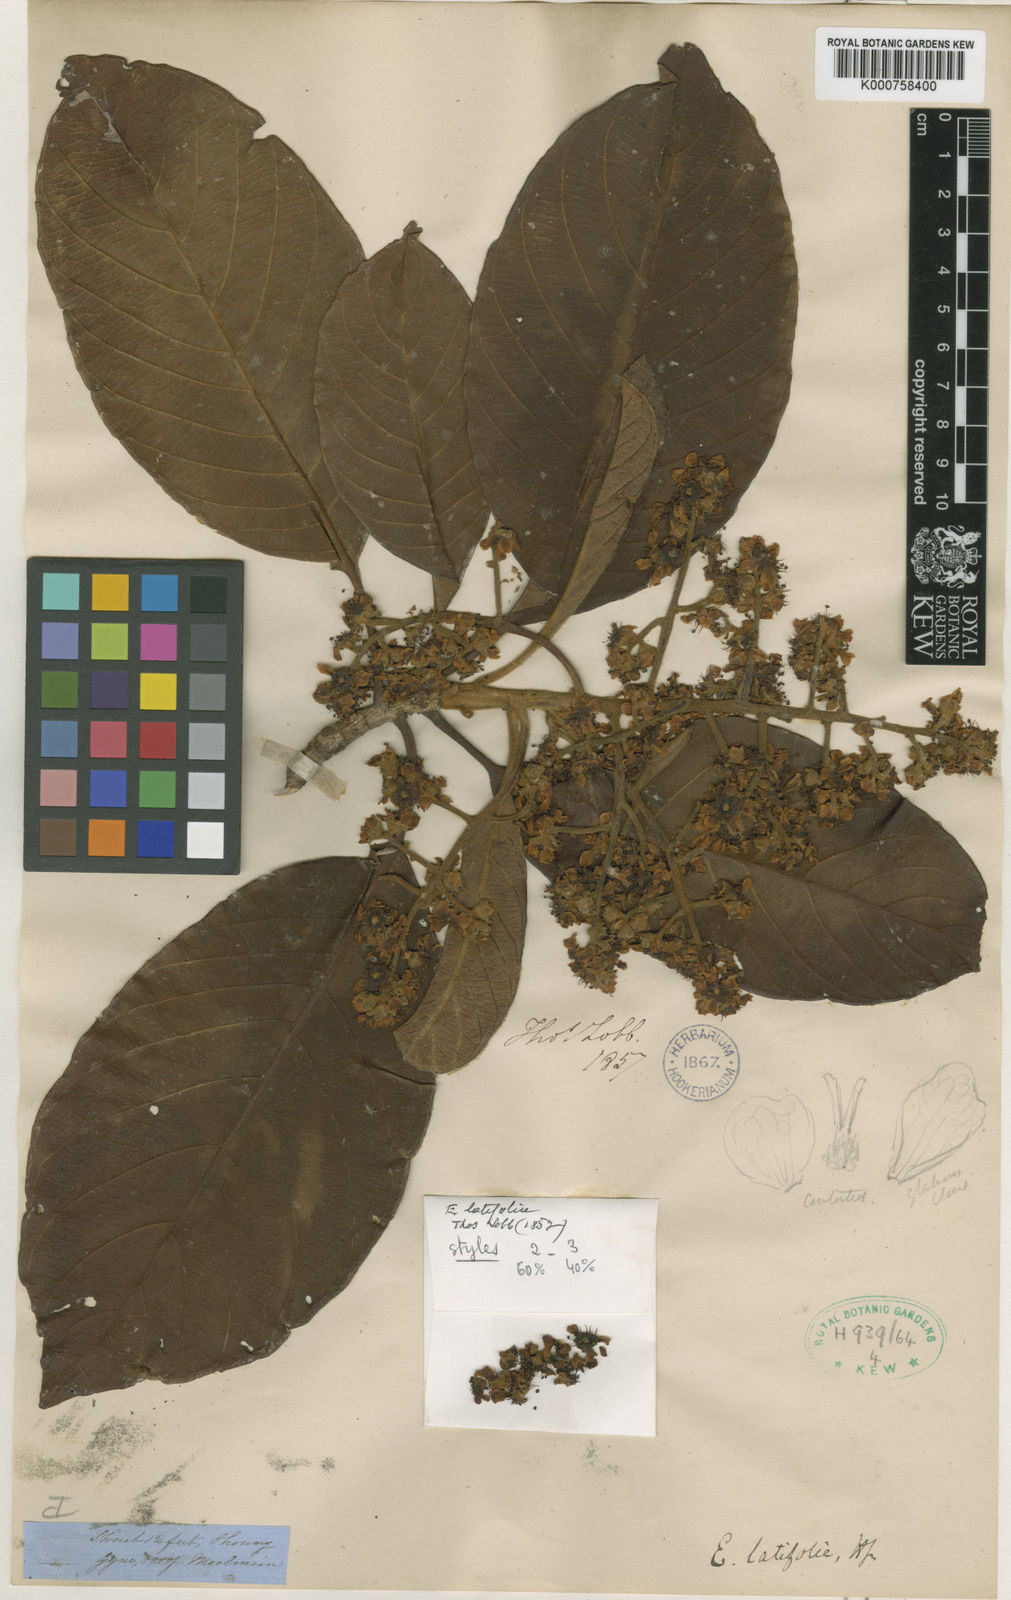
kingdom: Plantae
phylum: Tracheophyta
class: Magnoliopsida
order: Rosales
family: Rosaceae
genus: Rhaphiolepis
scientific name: Rhaphiolepis latifolia
